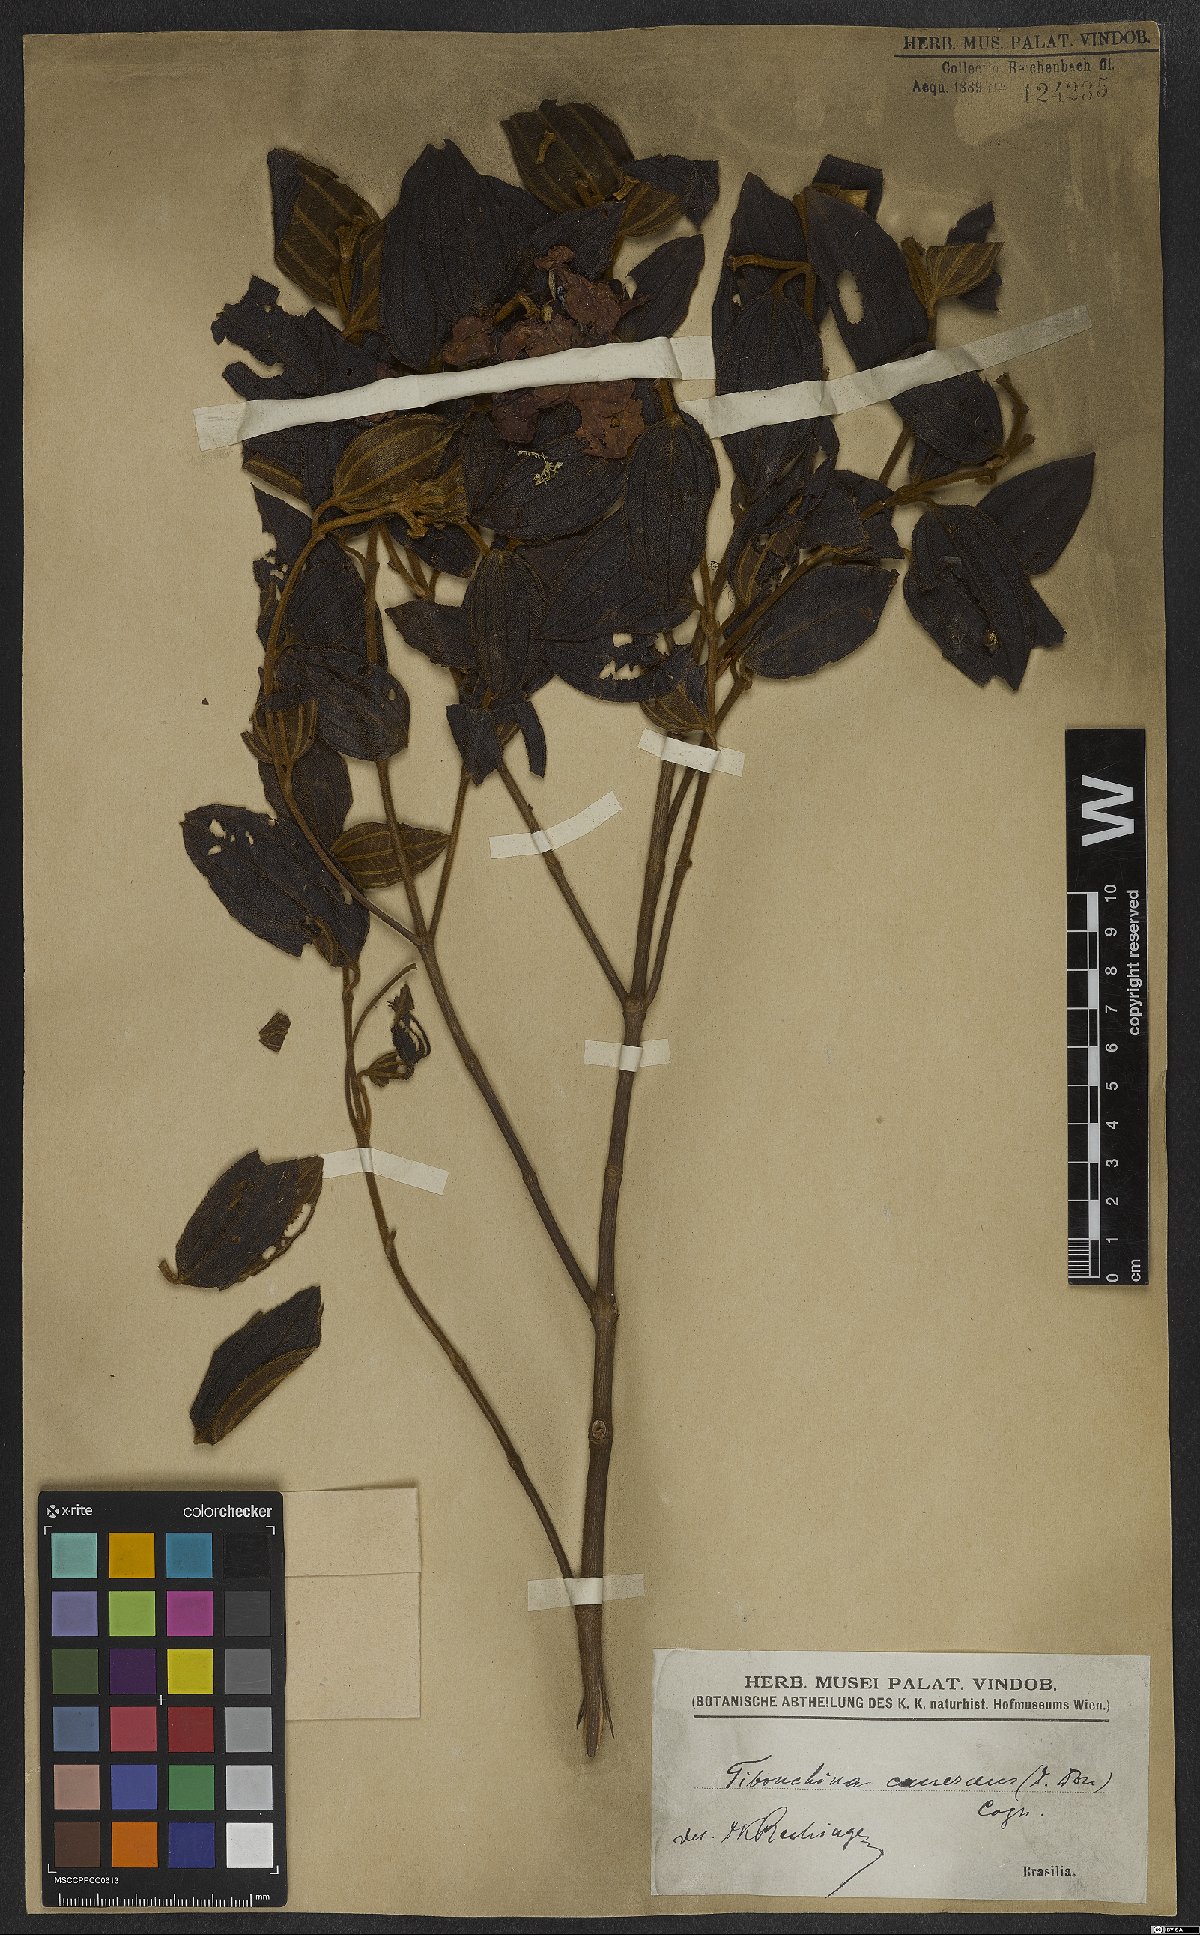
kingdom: Plantae
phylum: Tracheophyta
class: Magnoliopsida
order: Myrtales
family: Melastomataceae
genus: Pleroma
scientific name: Pleroma canescens
